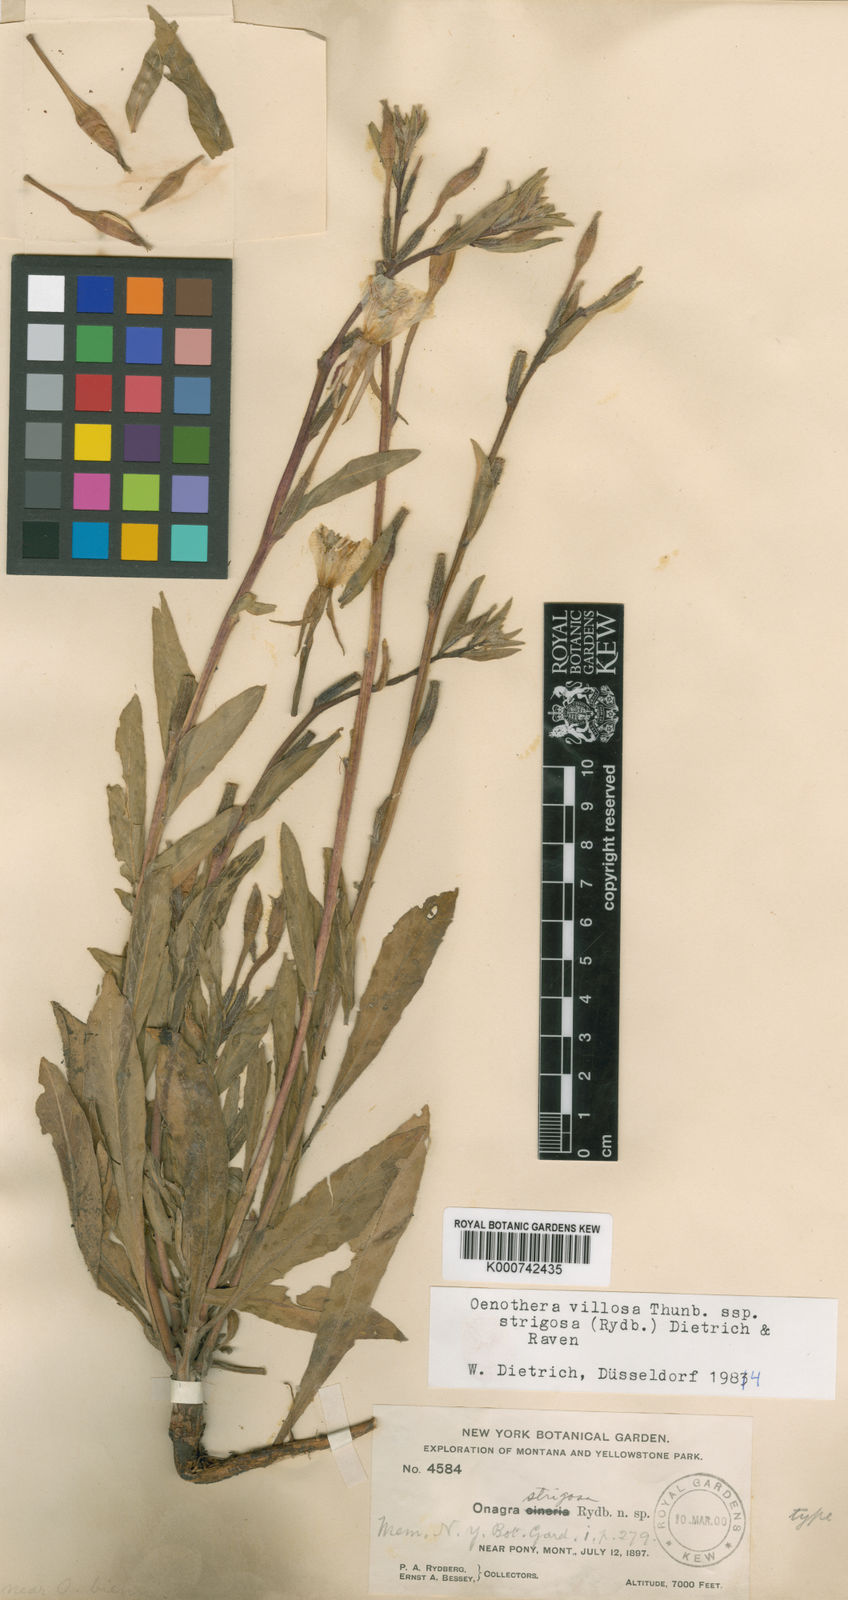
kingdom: Plantae
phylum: Tracheophyta
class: Magnoliopsida
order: Myrtales
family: Onagraceae
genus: Oenothera
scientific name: Oenothera villosa
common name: Hairy evening-primrose
